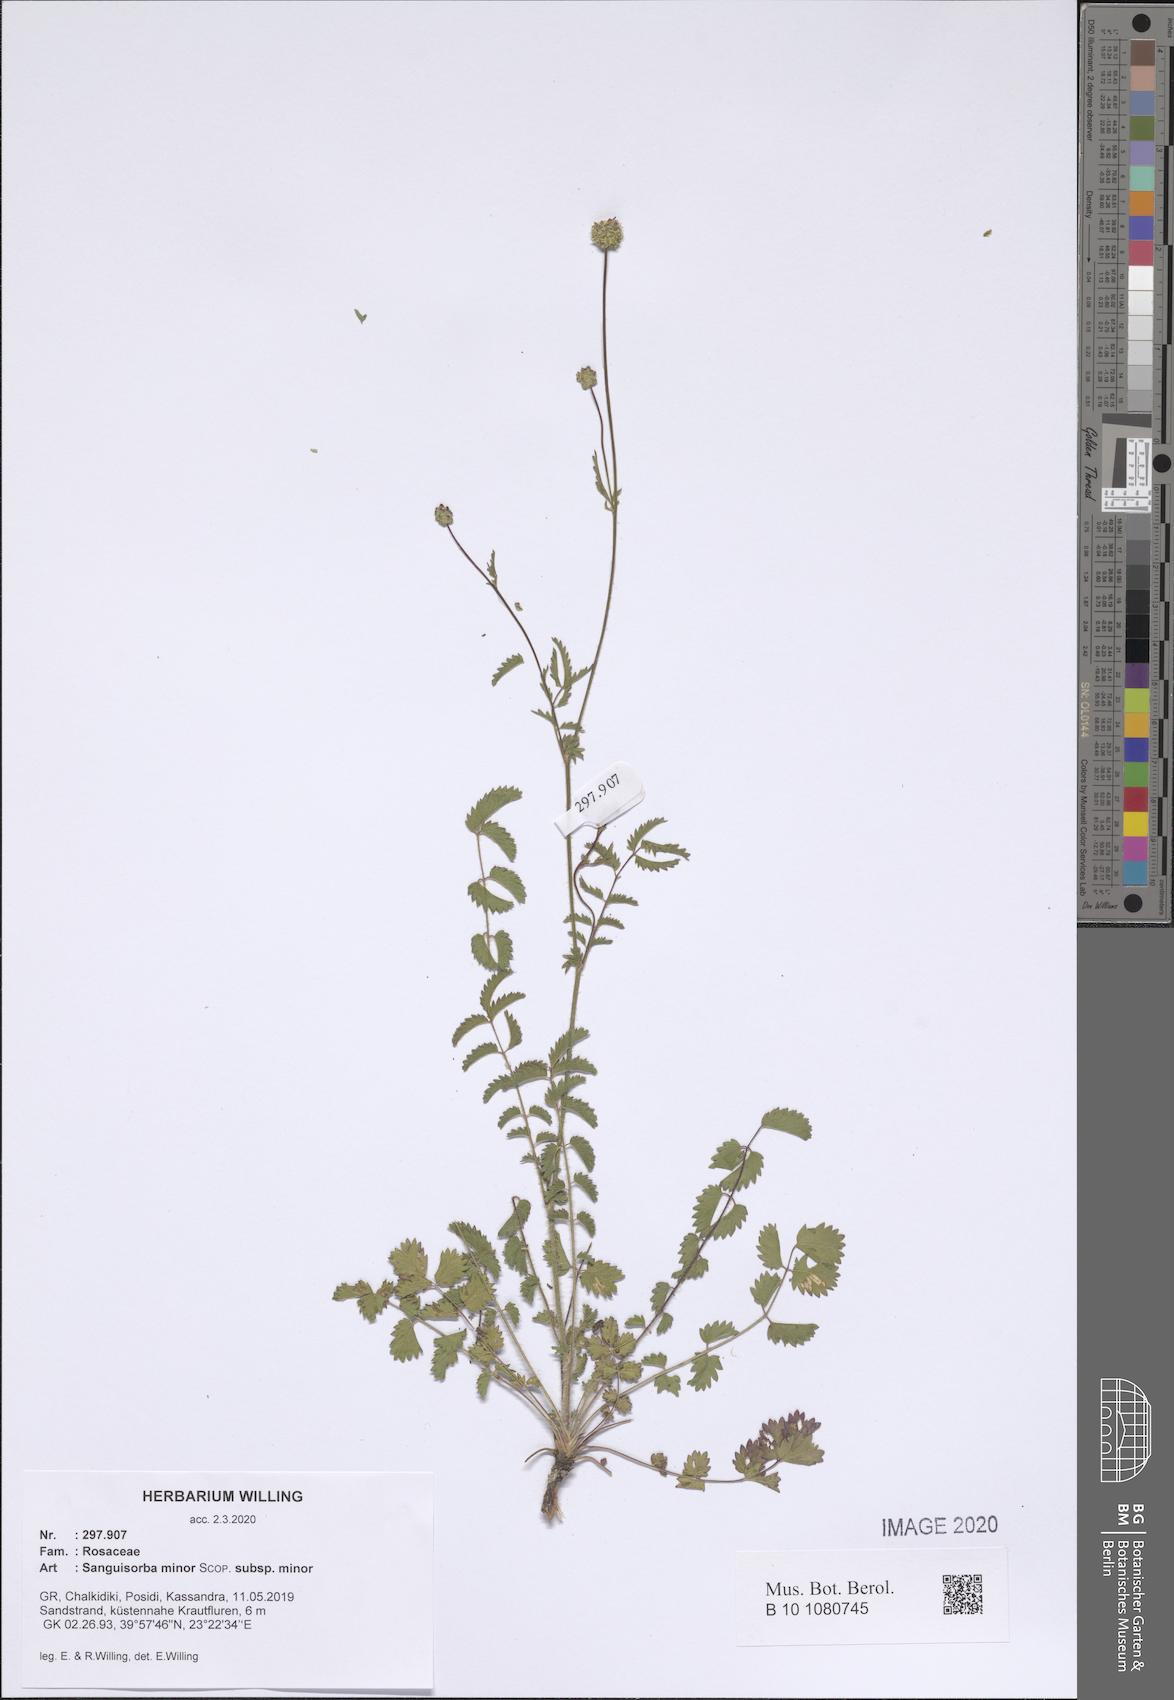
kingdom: Plantae
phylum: Tracheophyta
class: Magnoliopsida
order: Rosales
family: Rosaceae
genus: Poterium
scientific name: Poterium sanguisorba
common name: Salad burnet
